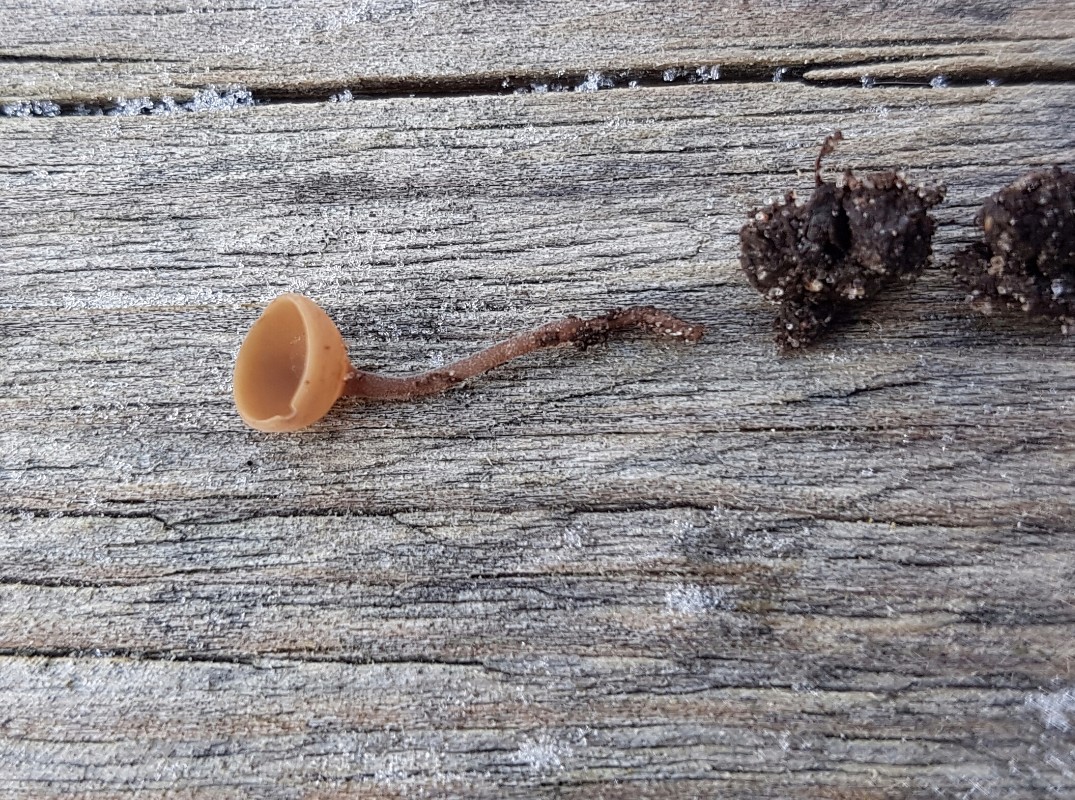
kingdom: Fungi
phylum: Ascomycota
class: Leotiomycetes
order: Helotiales
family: Sclerotiniaceae
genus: Ciboria
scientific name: Ciboria
